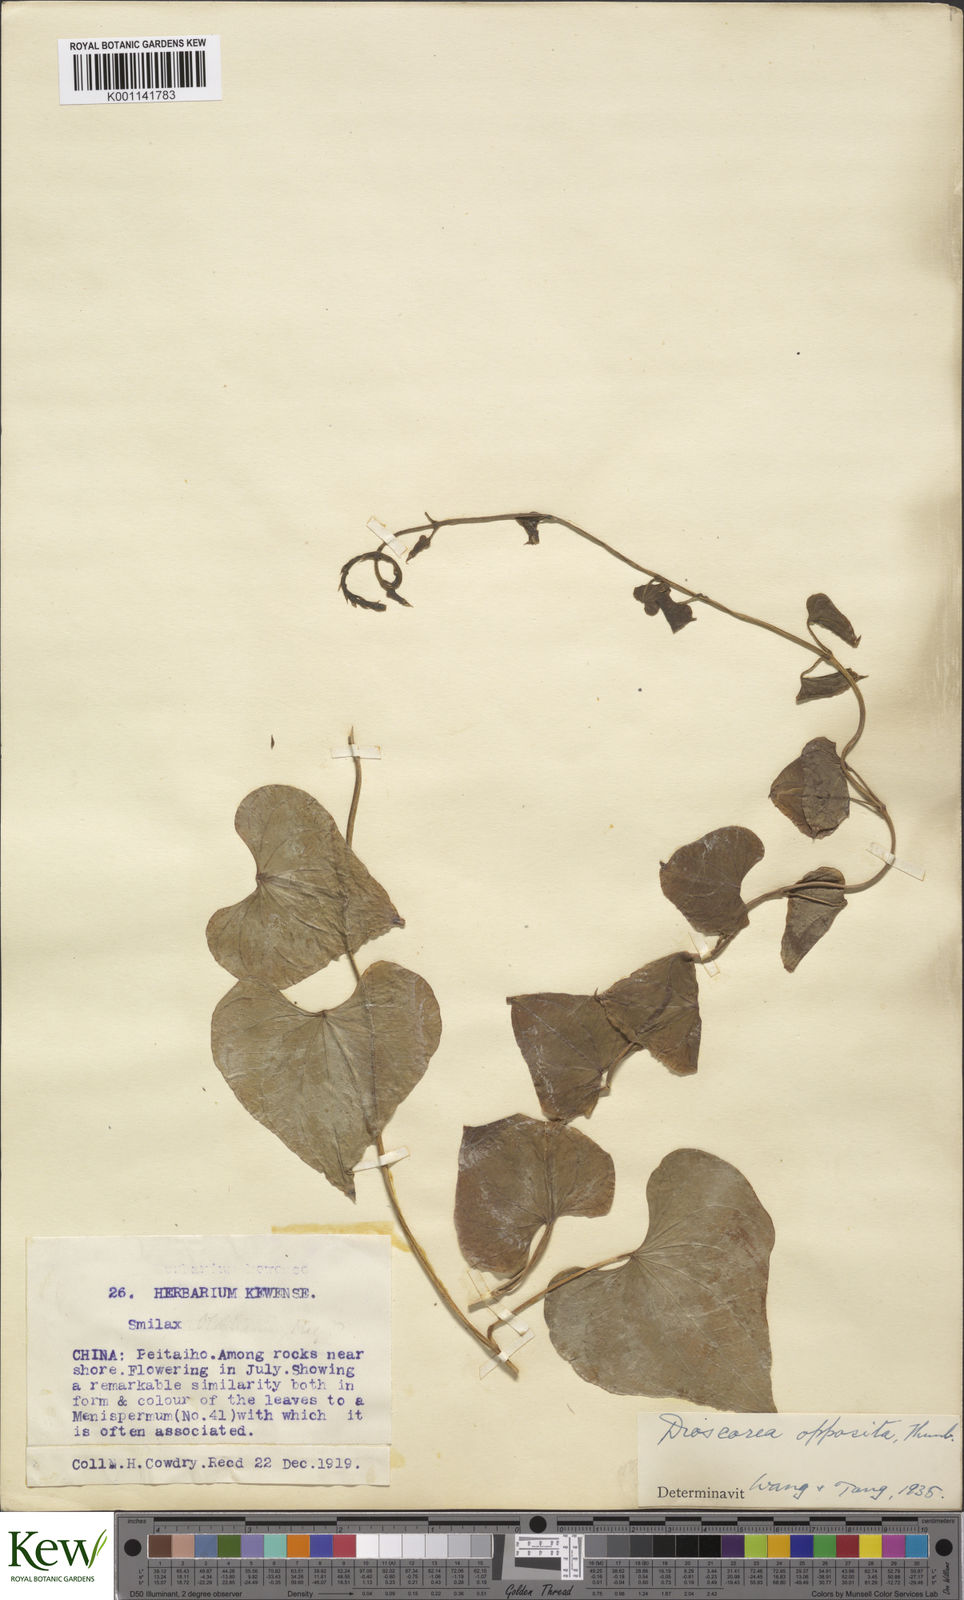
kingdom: Plantae
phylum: Tracheophyta
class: Liliopsida
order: Dioscoreales
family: Dioscoreaceae
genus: Dioscorea
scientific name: Dioscorea oppositifolia
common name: Chinese yam
